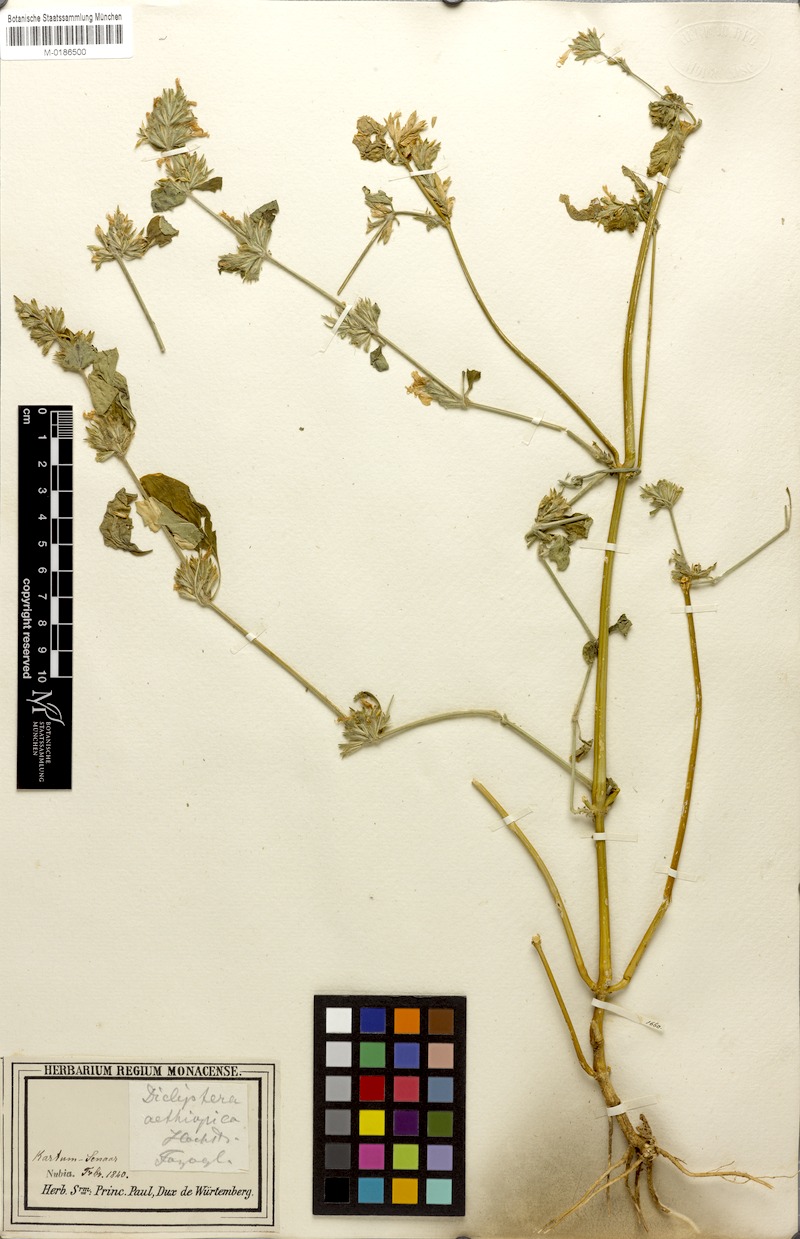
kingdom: Plantae
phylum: Tracheophyta
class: Magnoliopsida
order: Lamiales
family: Acanthaceae
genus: Hypoestes
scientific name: Hypoestes forskaolii
